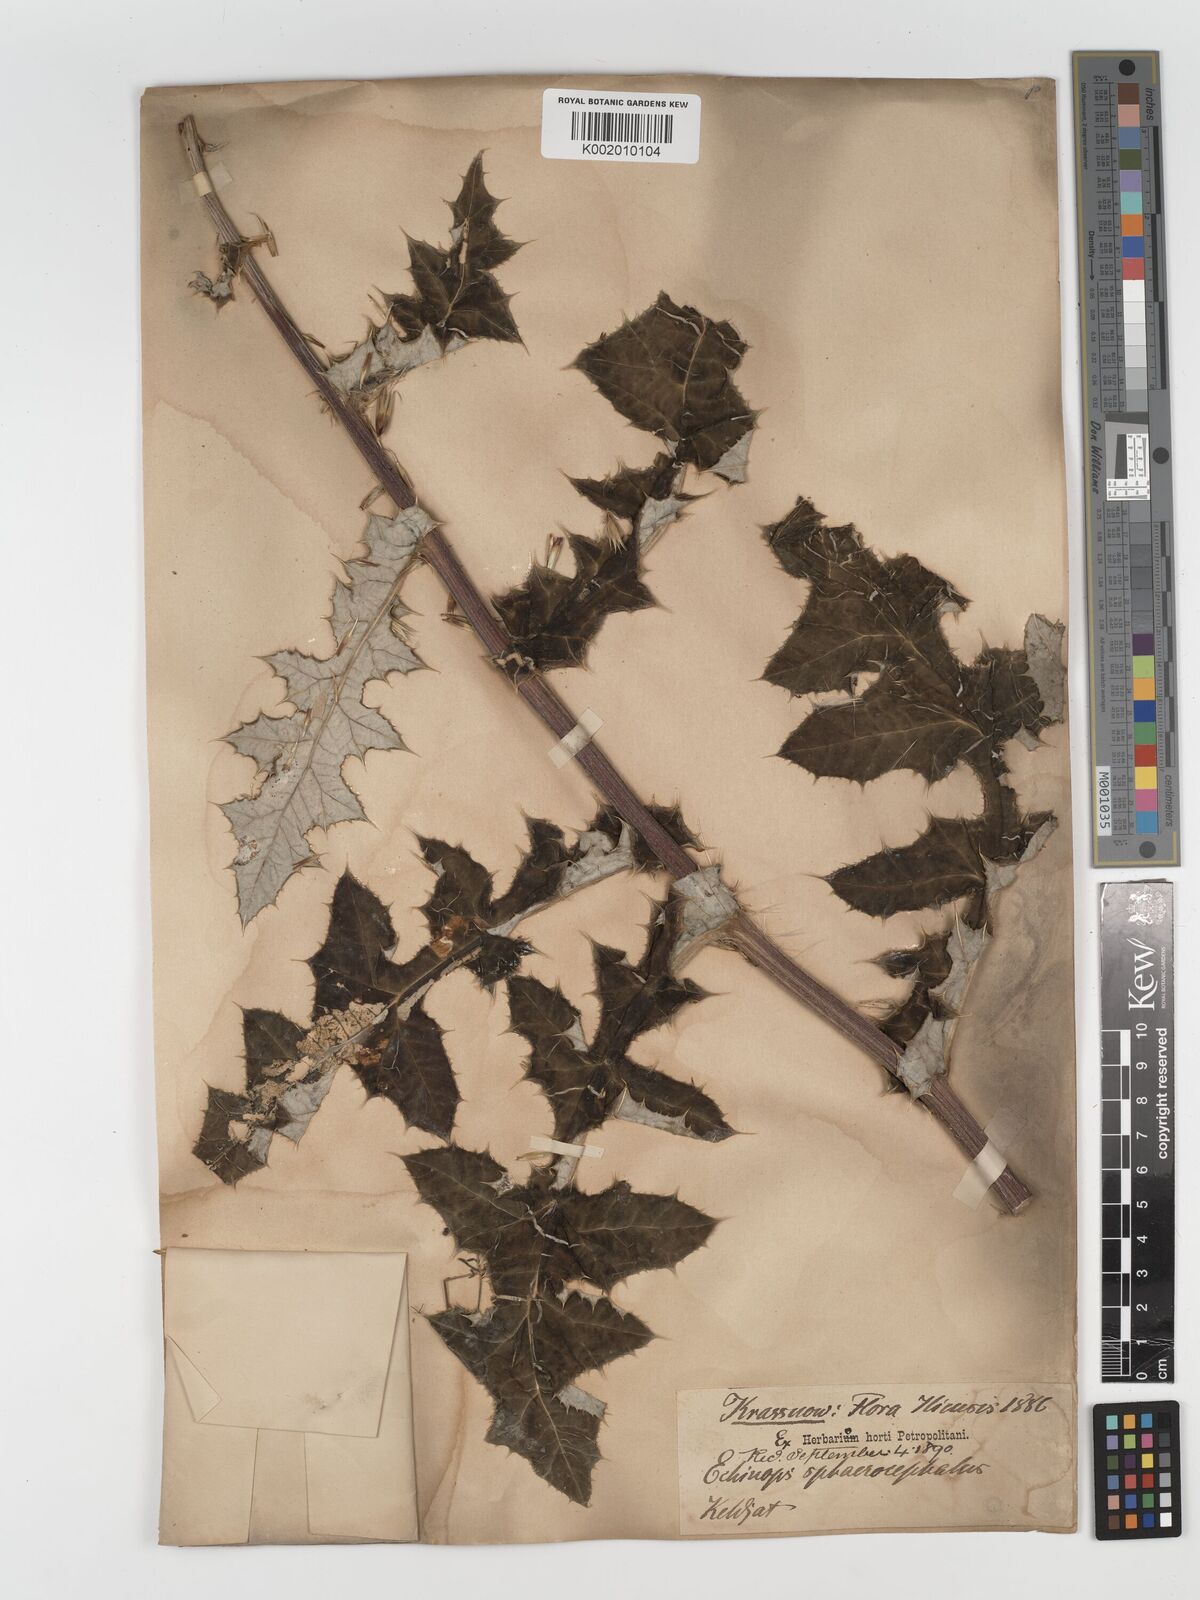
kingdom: Plantae
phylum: Tracheophyta
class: Magnoliopsida
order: Asterales
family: Asteraceae
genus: Echinops
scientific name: Echinops sphaerocephalus
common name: Glandular globe-thistle
